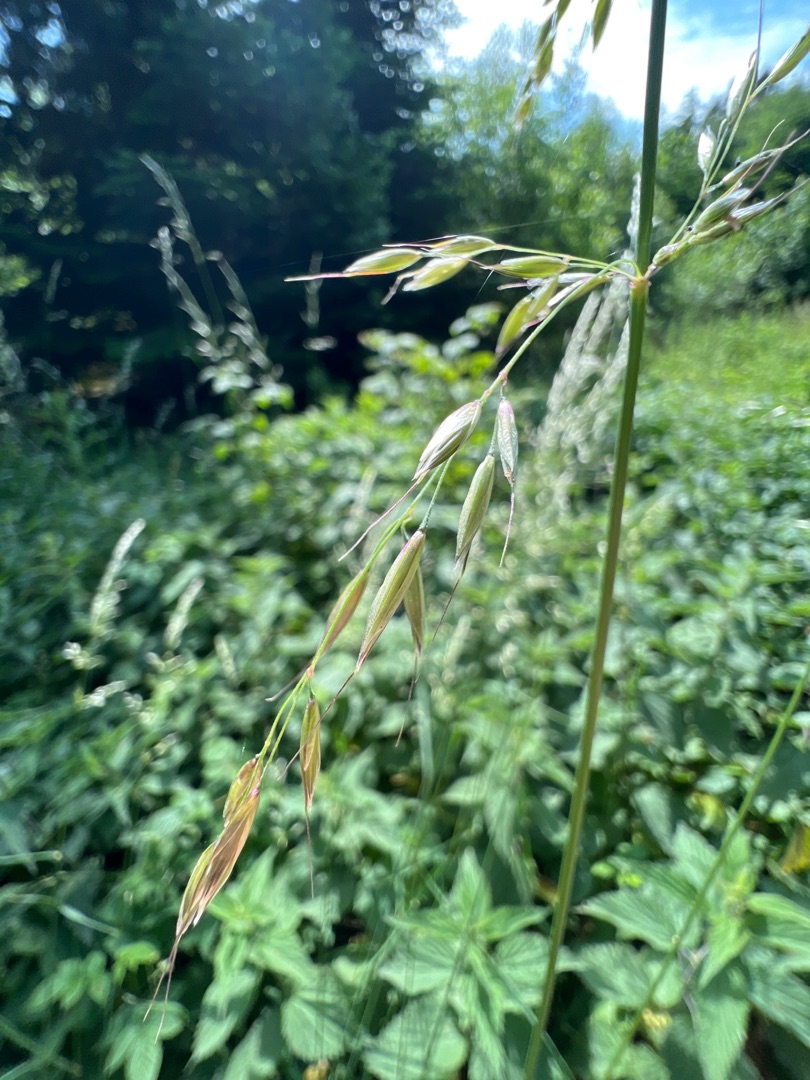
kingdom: Plantae
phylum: Tracheophyta
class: Liliopsida
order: Poales
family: Poaceae
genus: Arrhenatherum
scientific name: Arrhenatherum elatius
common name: Draphavre
